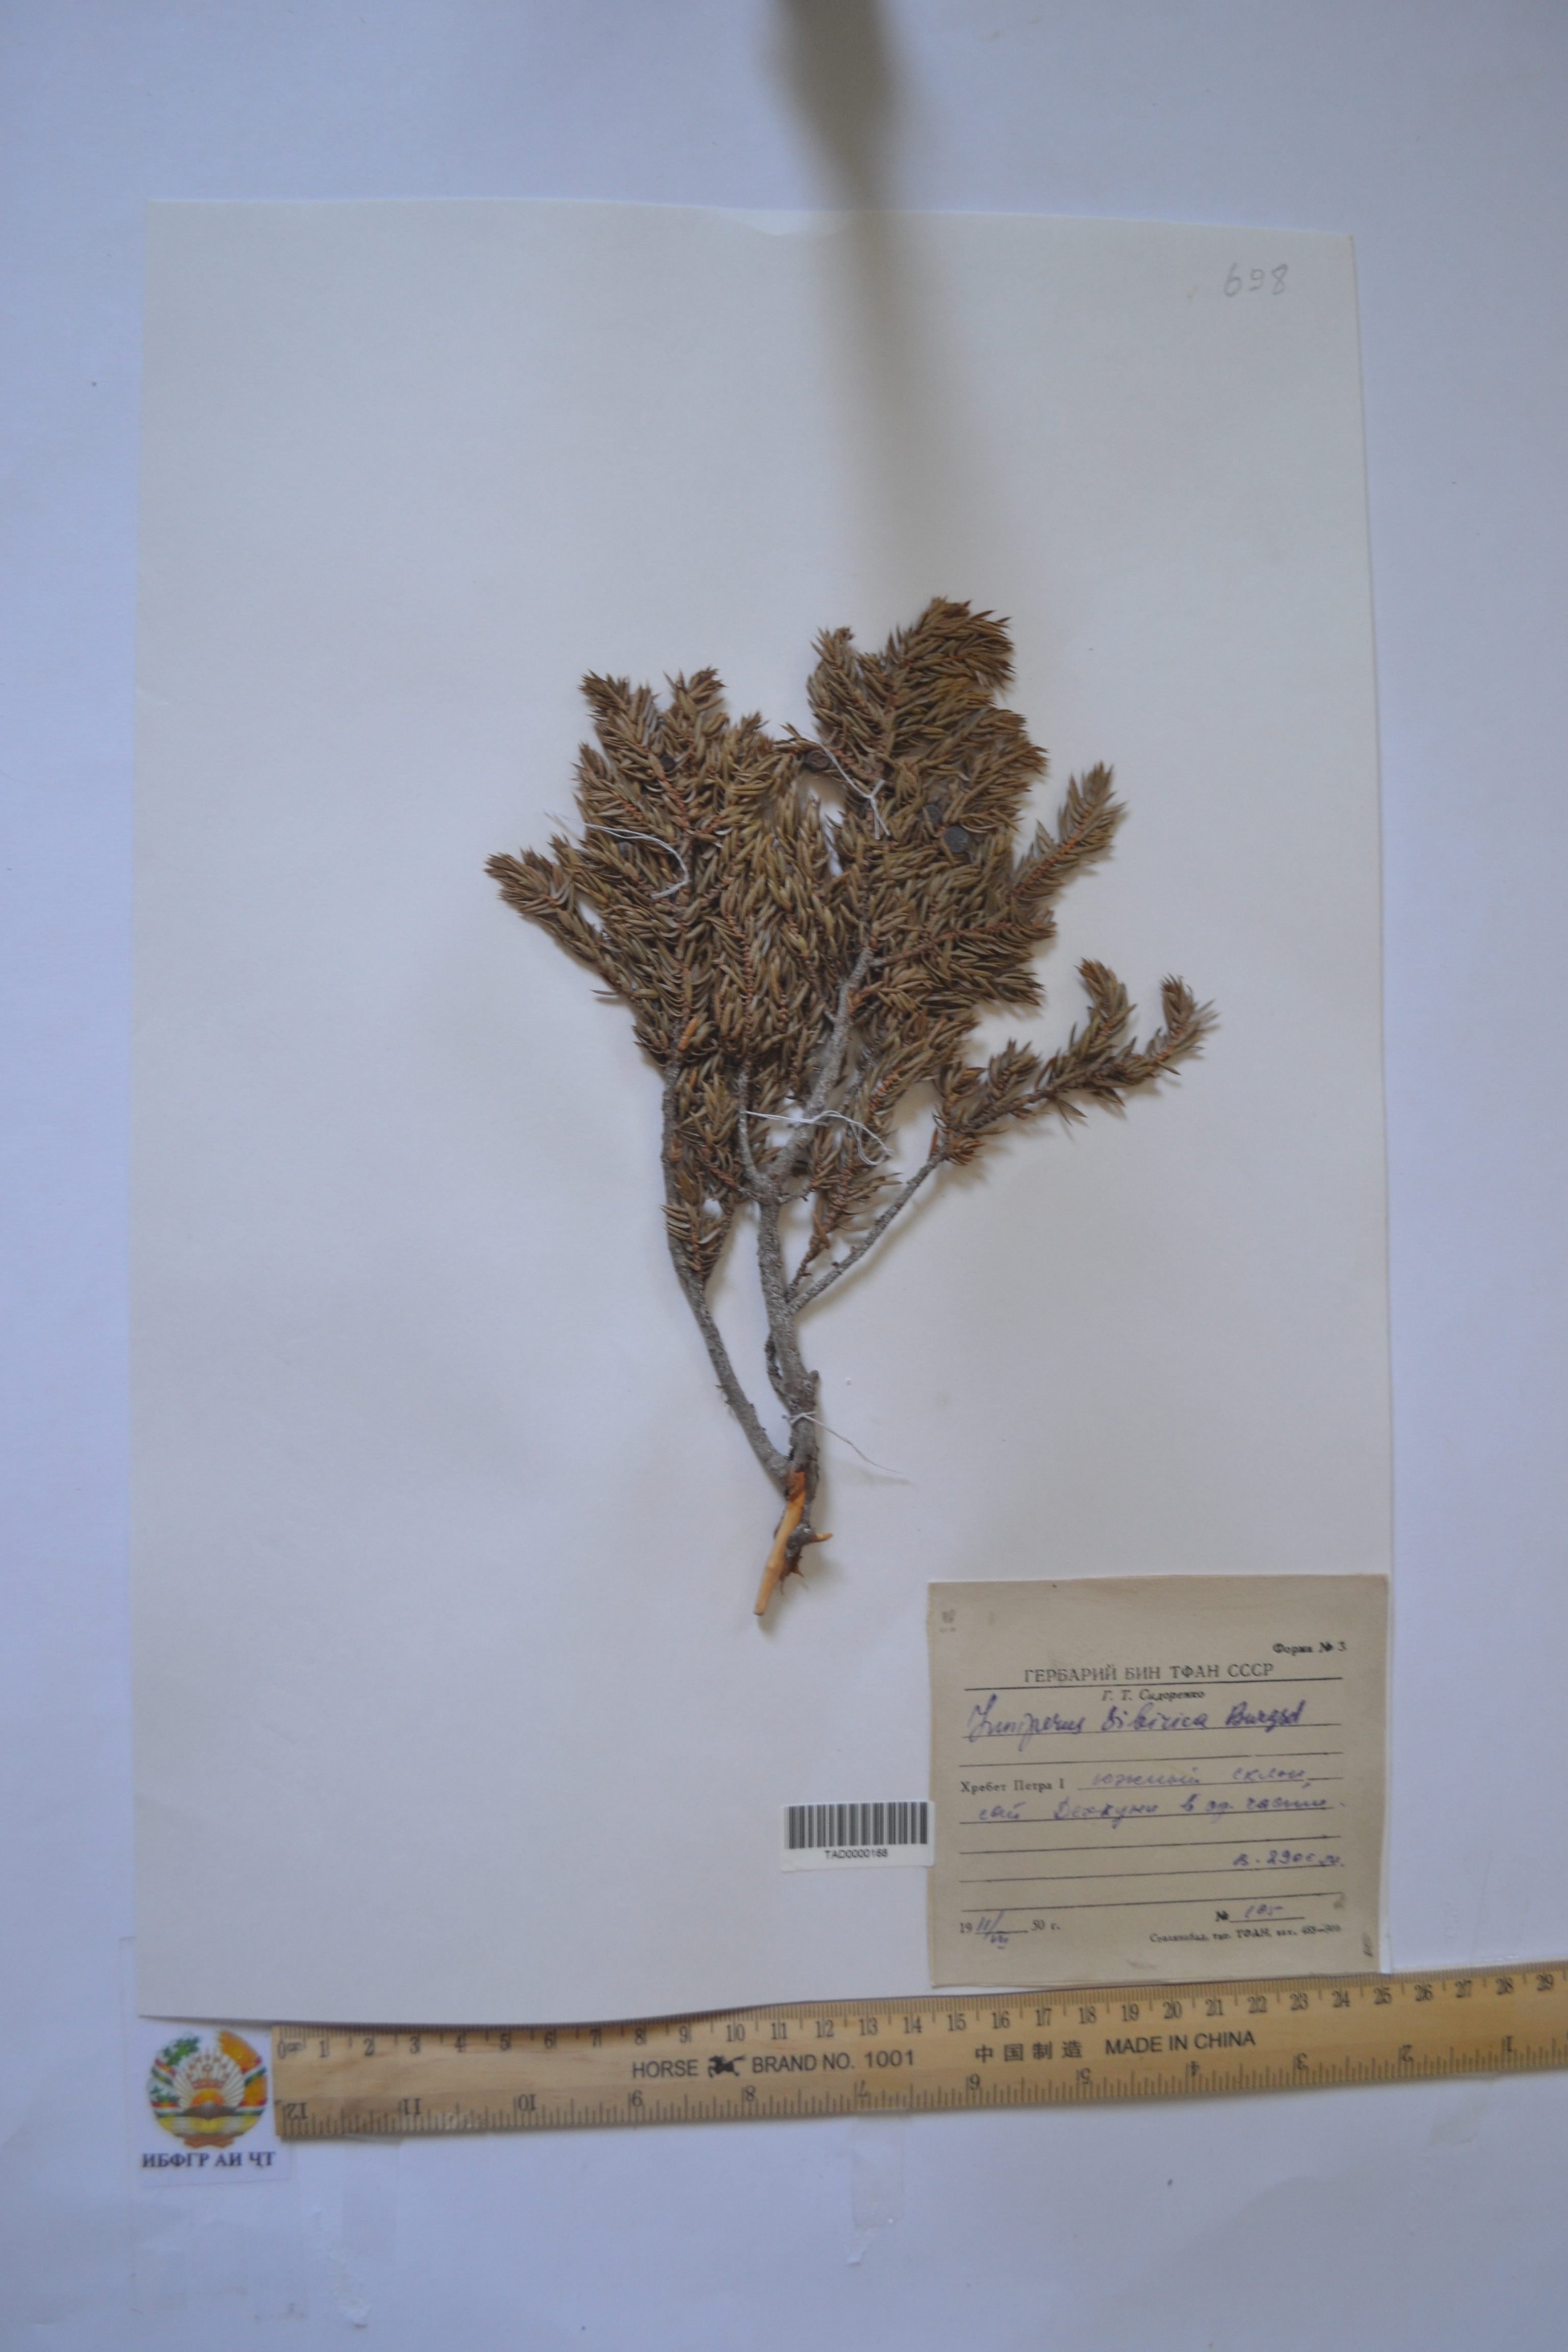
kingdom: Plantae
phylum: Tracheophyta
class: Pinopsida
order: Pinales
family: Cupressaceae
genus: Juniperus
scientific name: Juniperus communis
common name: Common juniper
